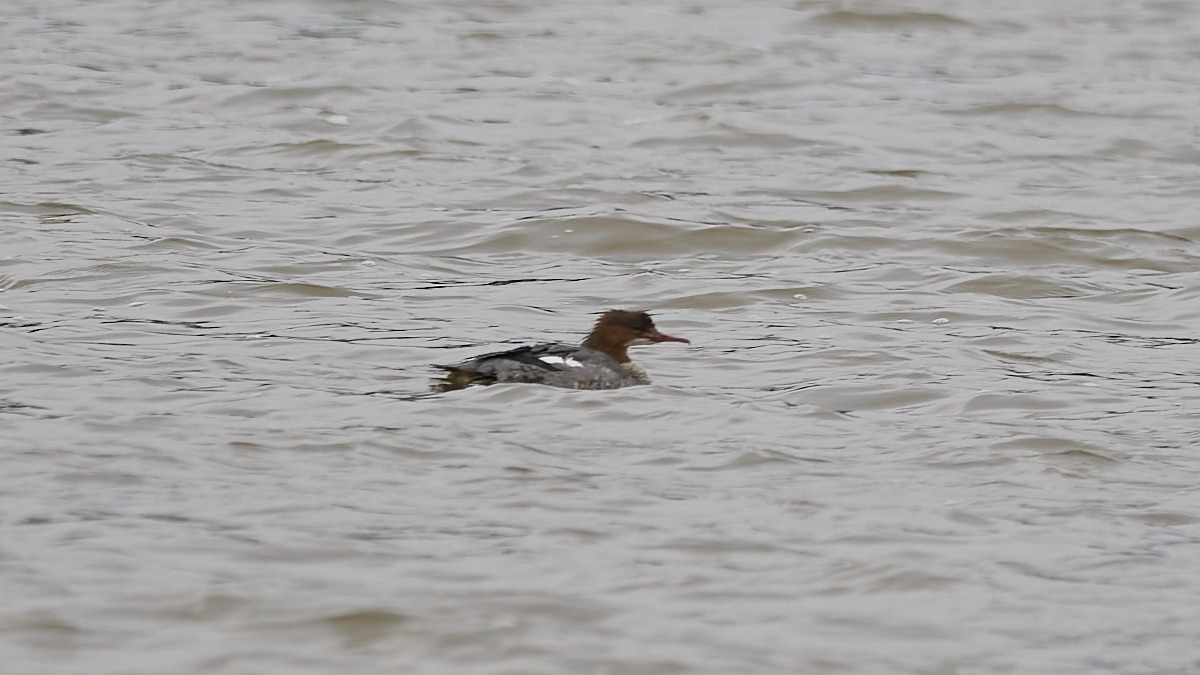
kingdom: Animalia
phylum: Chordata
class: Aves
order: Anseriformes
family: Anatidae
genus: Mergus
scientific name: Mergus merganser
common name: Stor skallesluger
